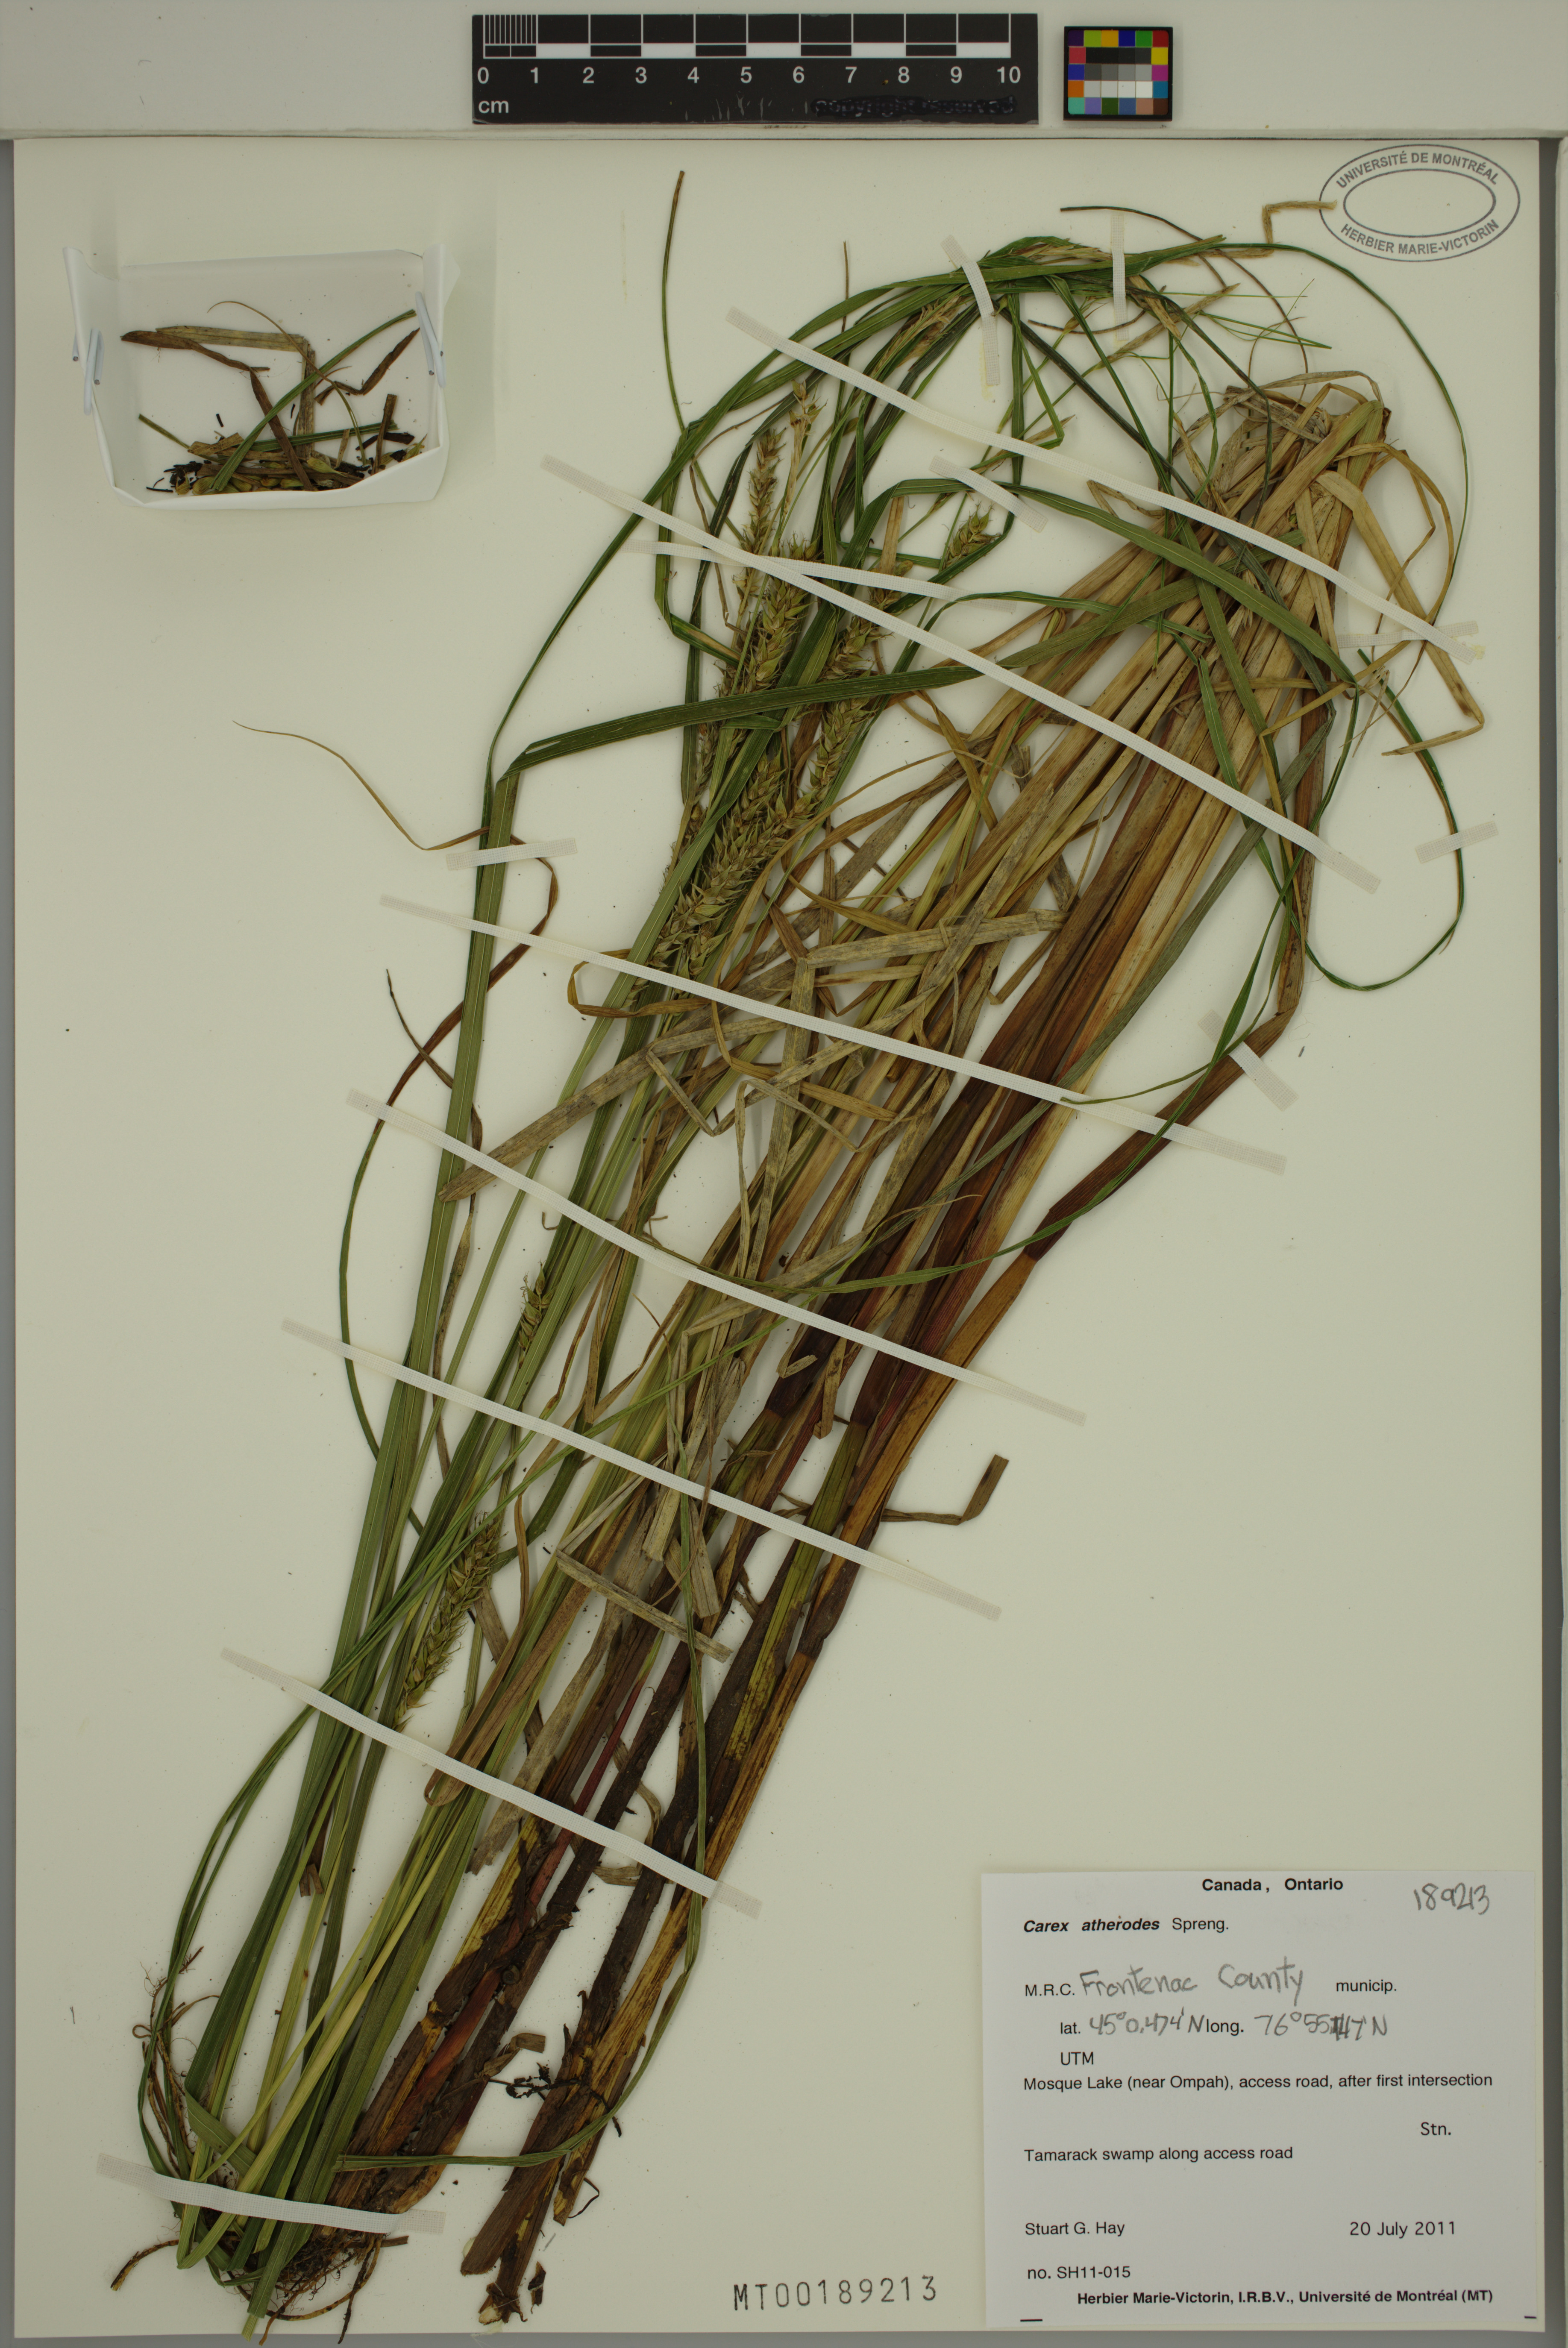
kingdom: Plantae
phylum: Tracheophyta
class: Liliopsida
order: Poales
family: Cyperaceae
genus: Carex
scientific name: Carex atherodes
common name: Wheat sedge
